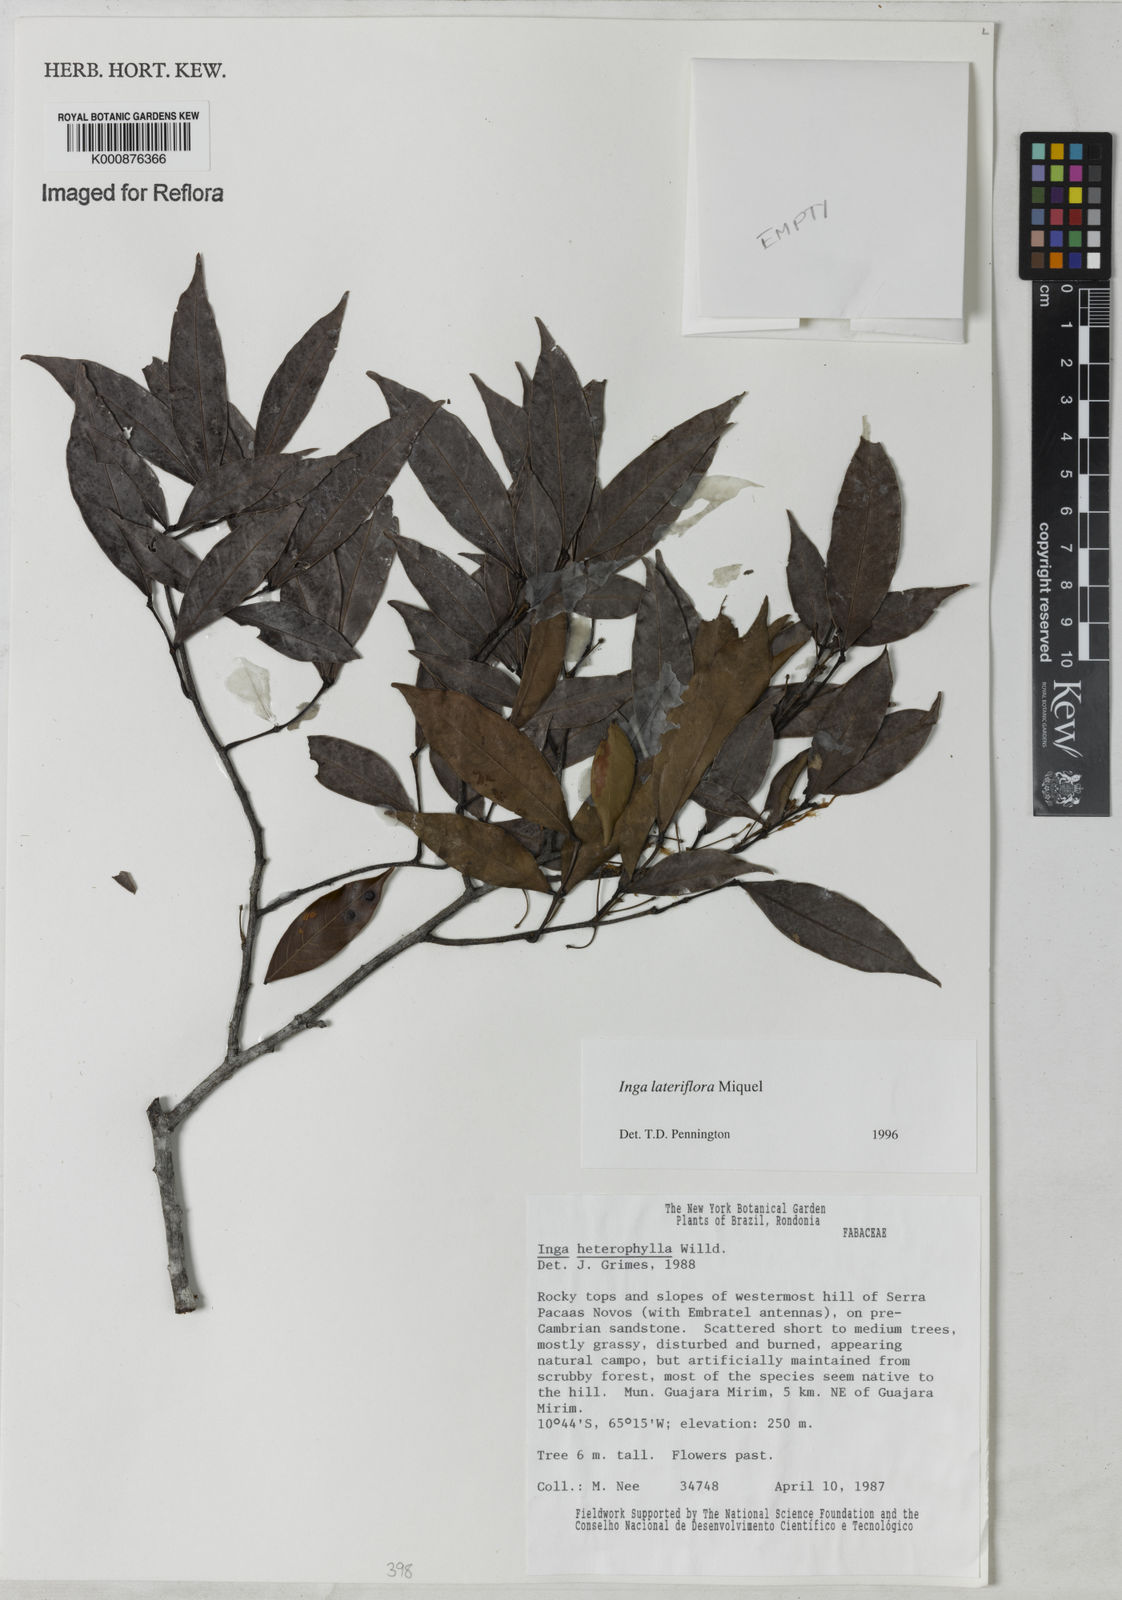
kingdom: Plantae
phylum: Tracheophyta
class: Magnoliopsida
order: Fabales
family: Fabaceae
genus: Inga
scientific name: Inga lateriflora
